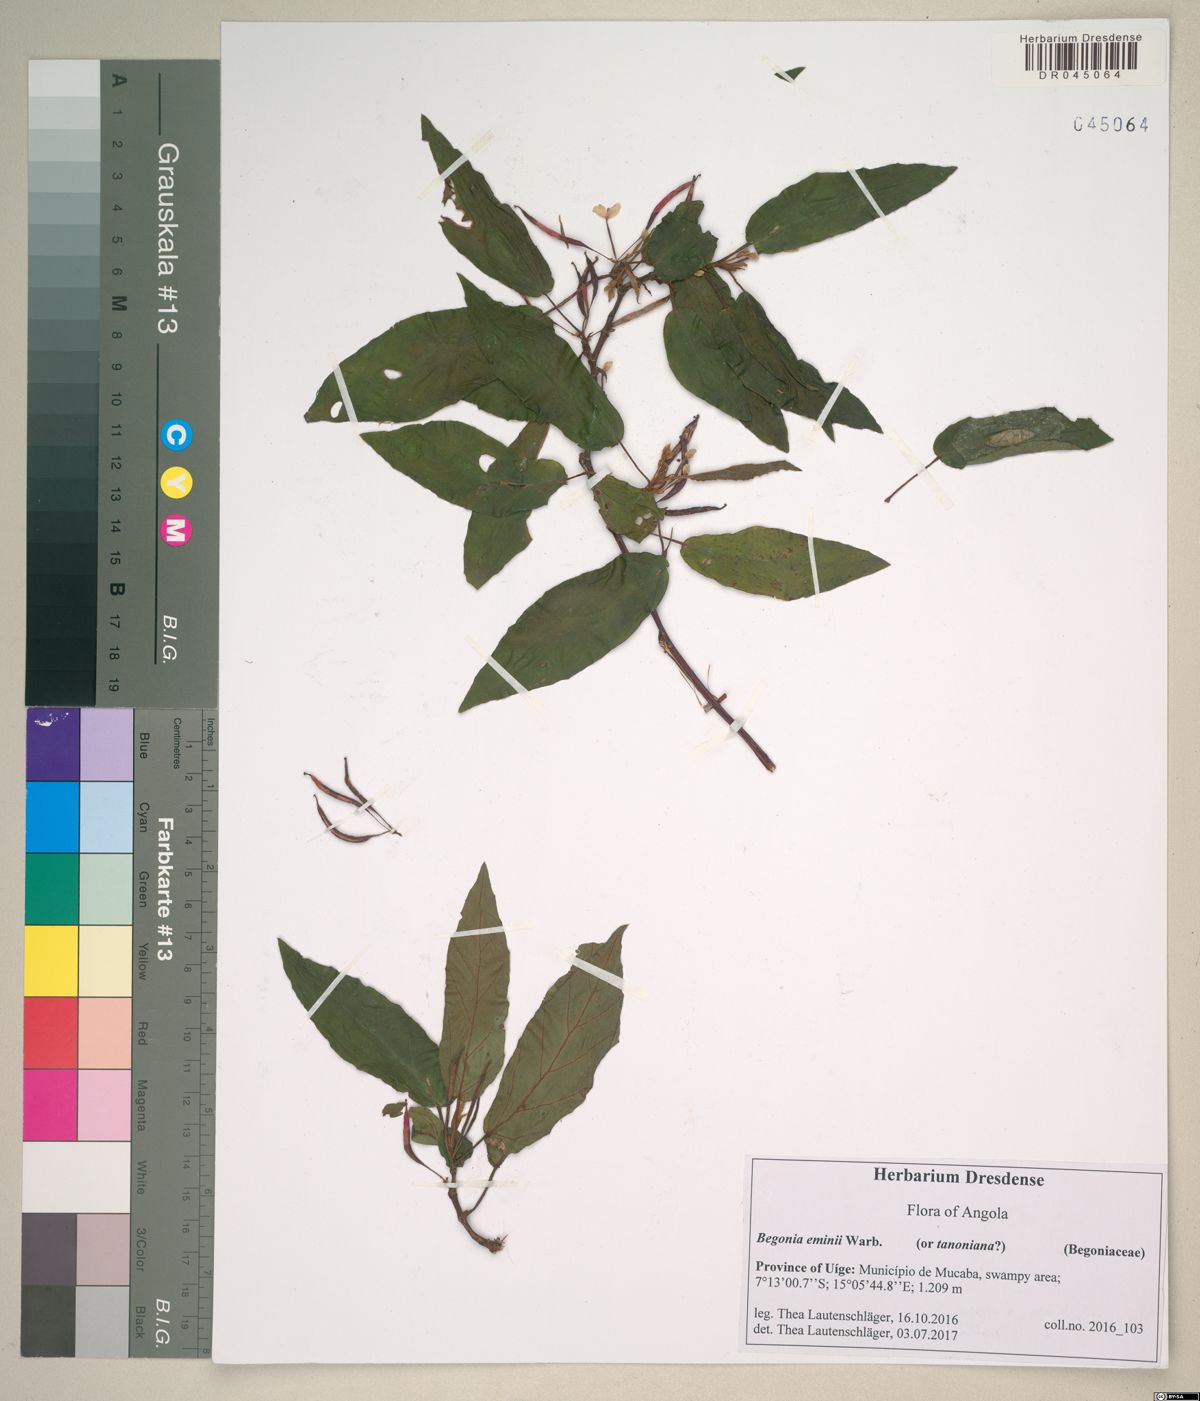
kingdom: Plantae
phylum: Tracheophyta
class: Magnoliopsida
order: Cucurbitales
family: Begoniaceae
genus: Begonia
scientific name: Begonia eminii
